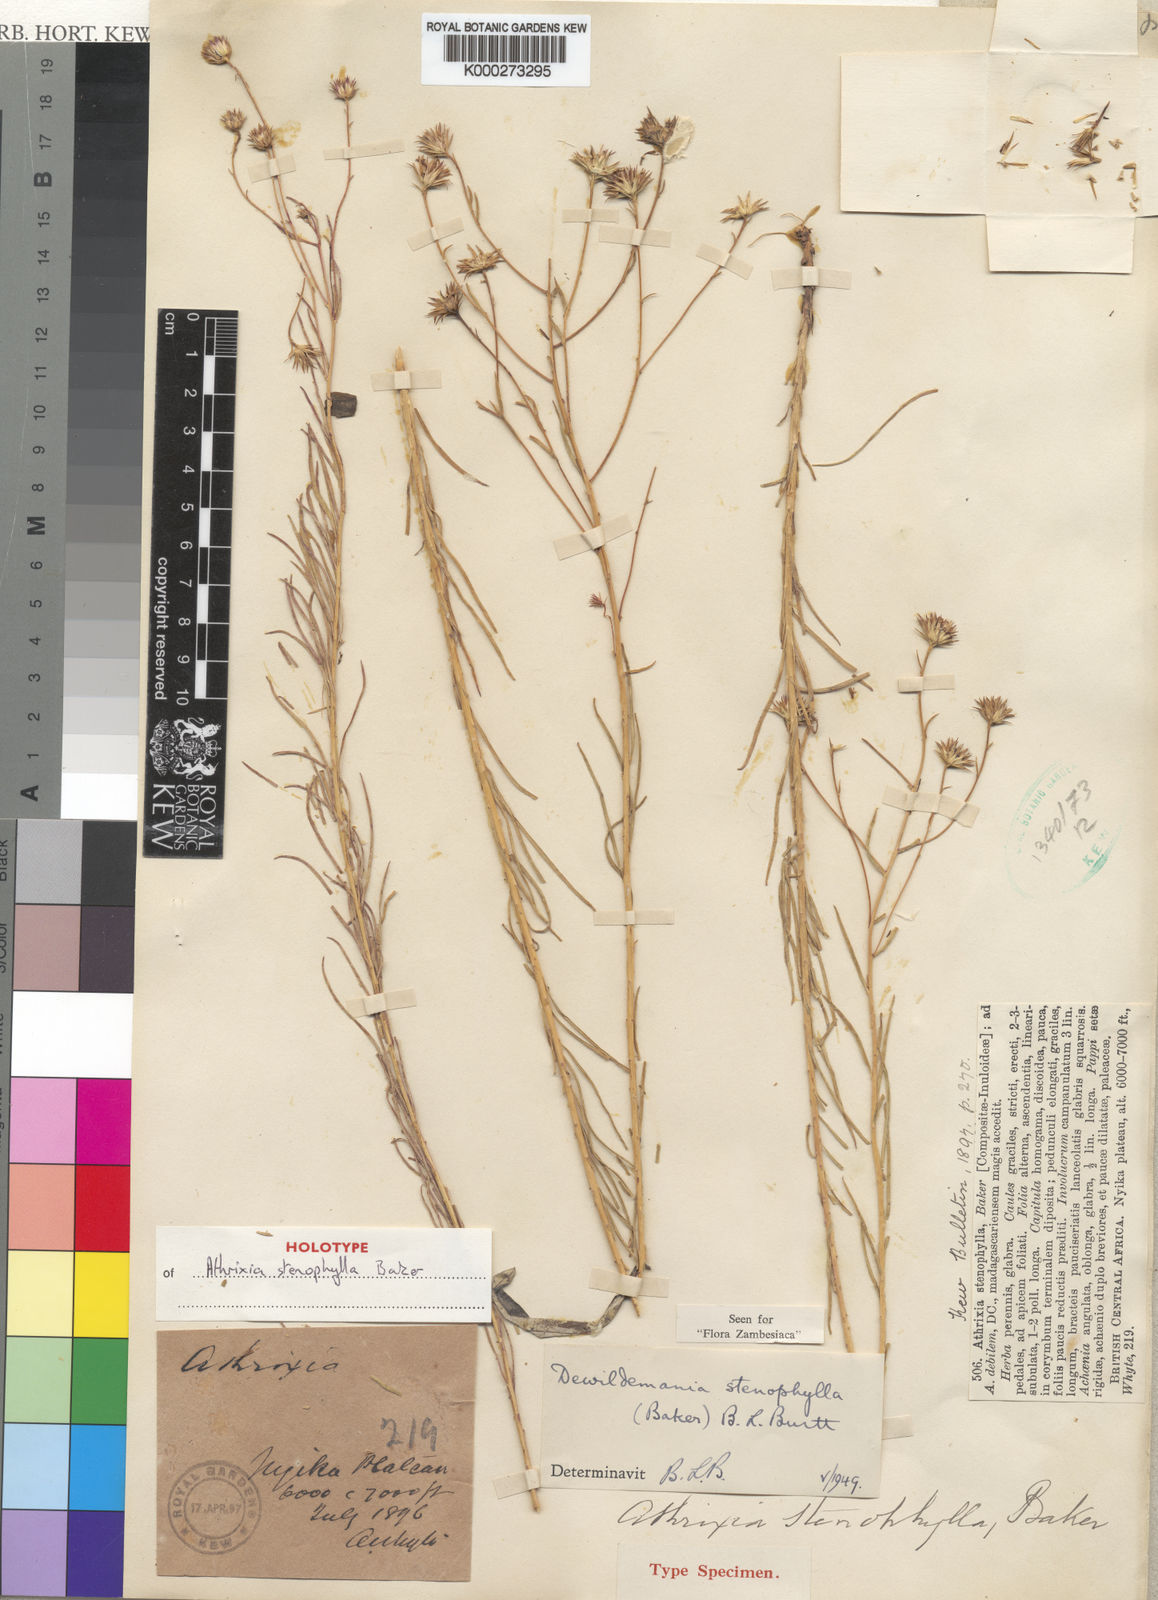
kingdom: Plantae
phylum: Tracheophyta
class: Magnoliopsida
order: Asterales
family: Asteraceae
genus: Dewildemania
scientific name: Dewildemania stenophylla
